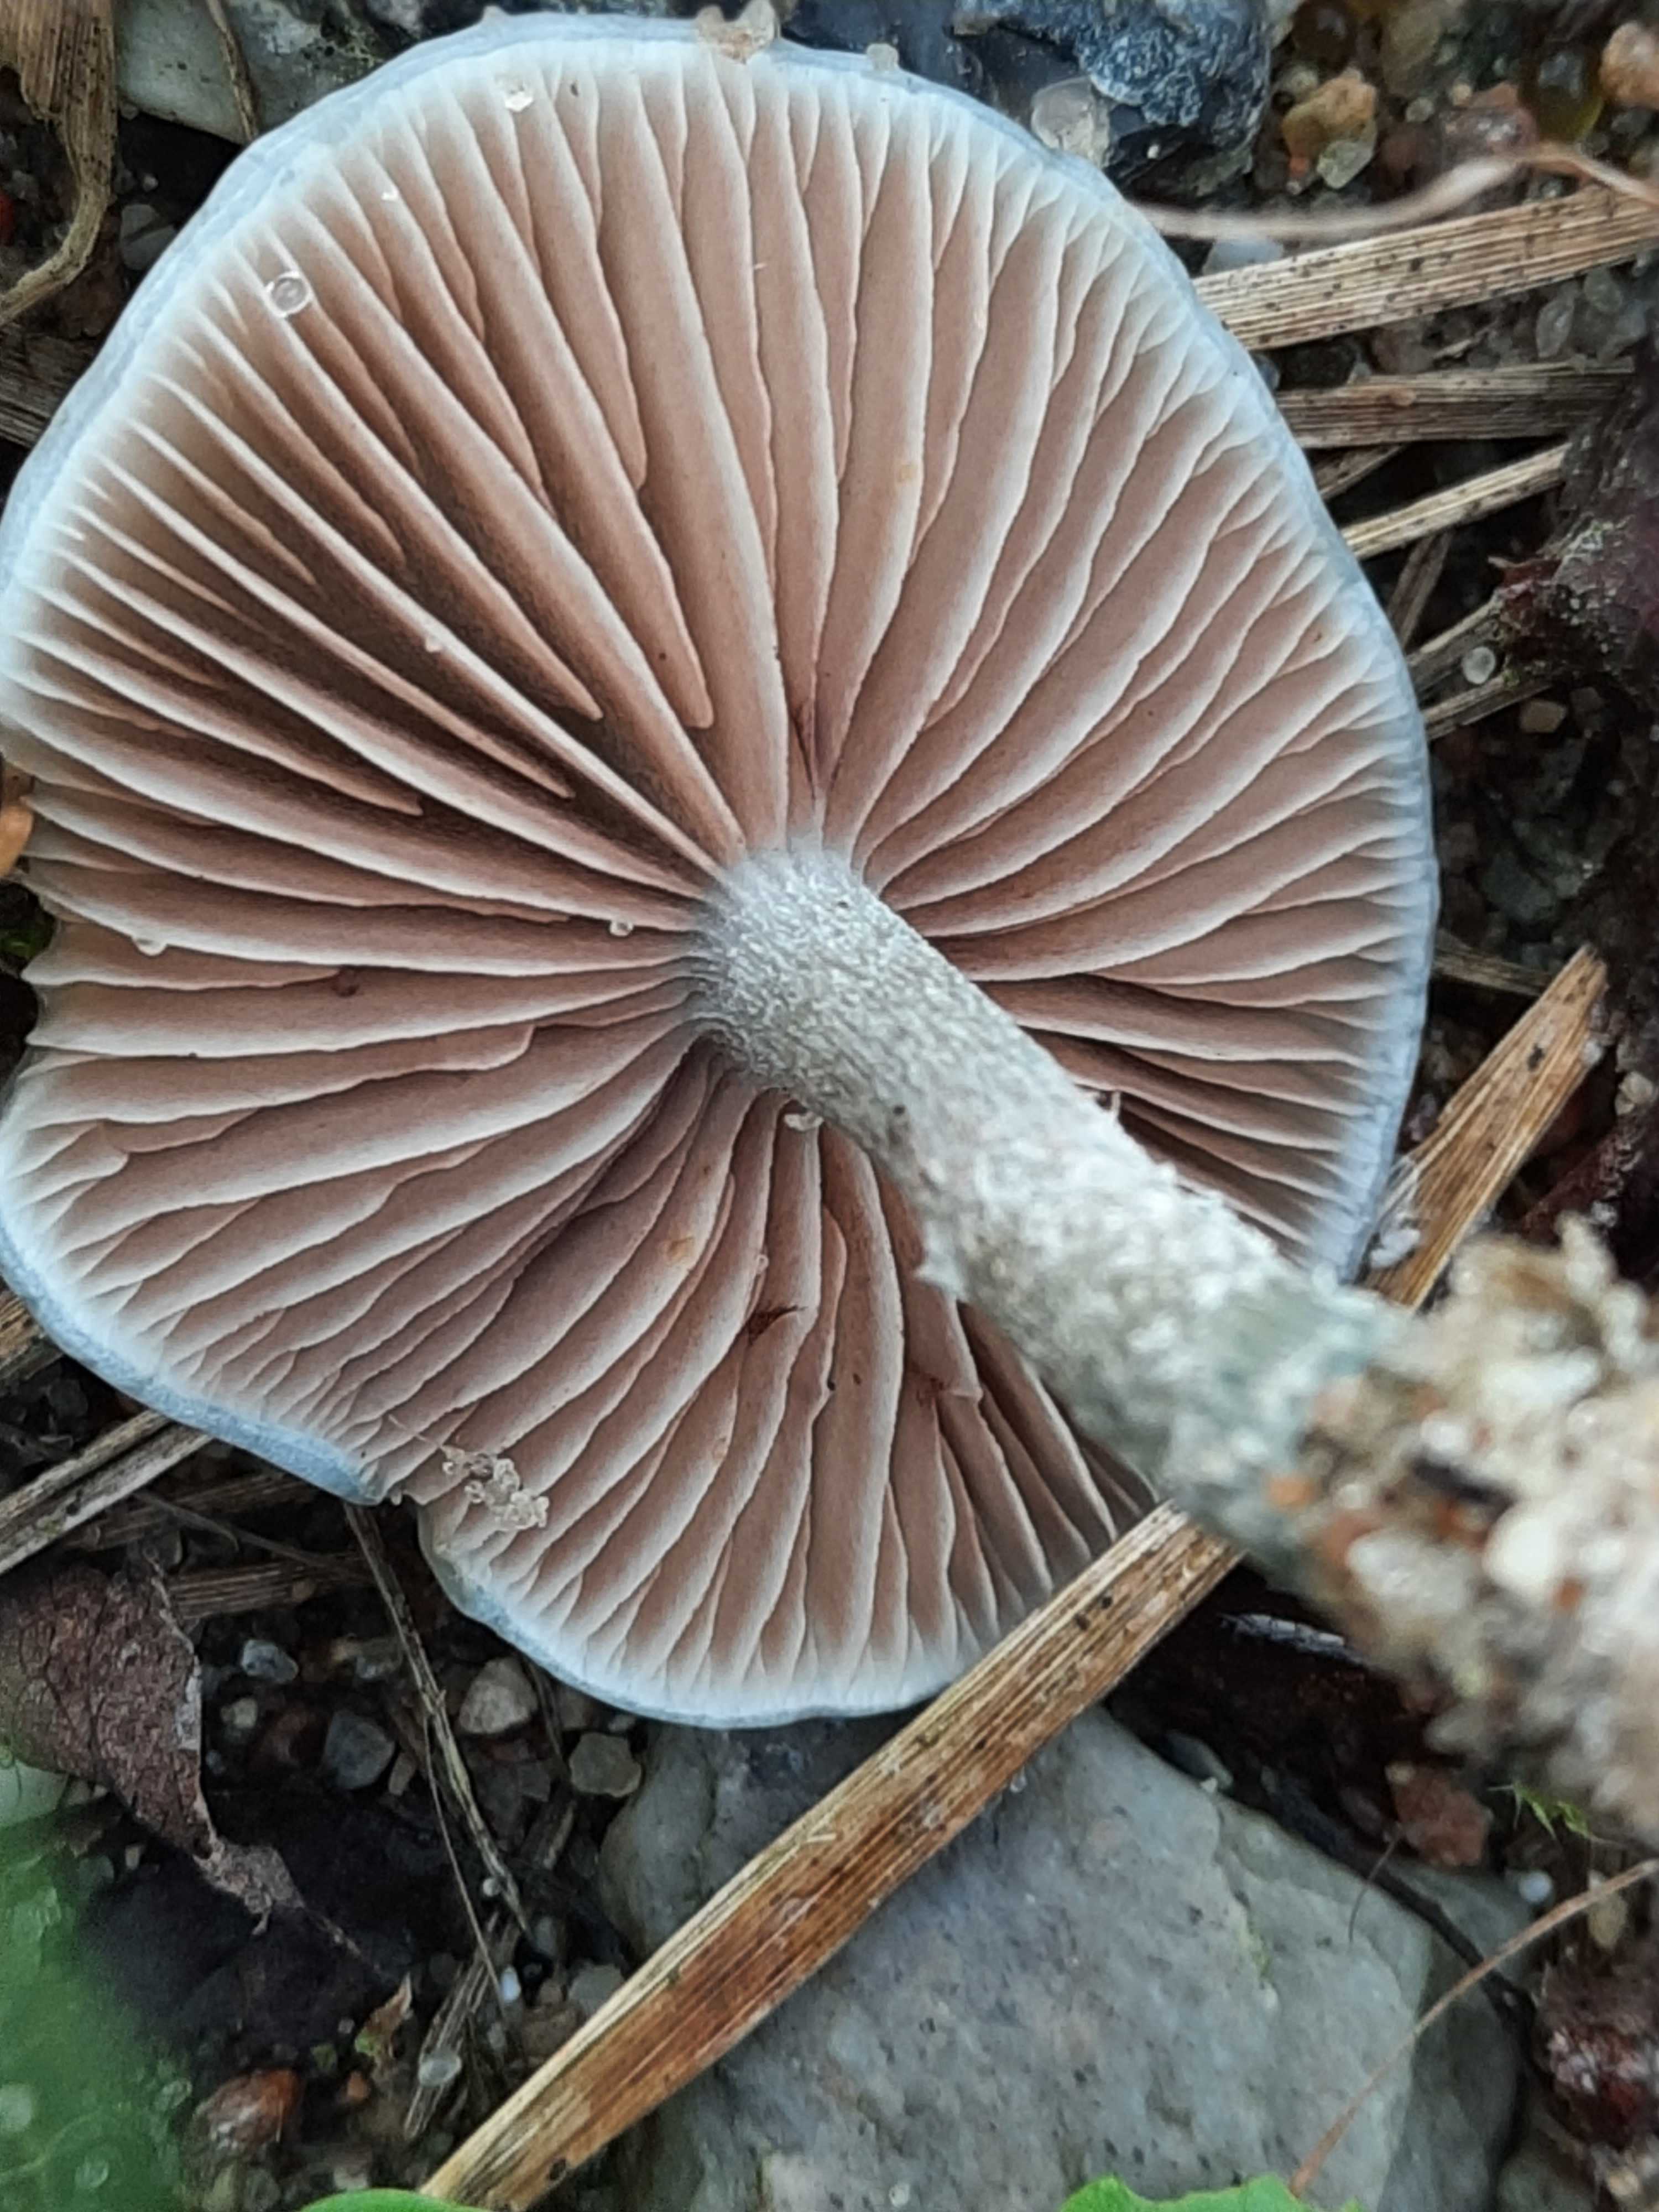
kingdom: Fungi
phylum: Basidiomycota
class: Agaricomycetes
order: Agaricales
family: Strophariaceae
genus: Stropharia
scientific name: Stropharia cyanea
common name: blågrøn bredblad
